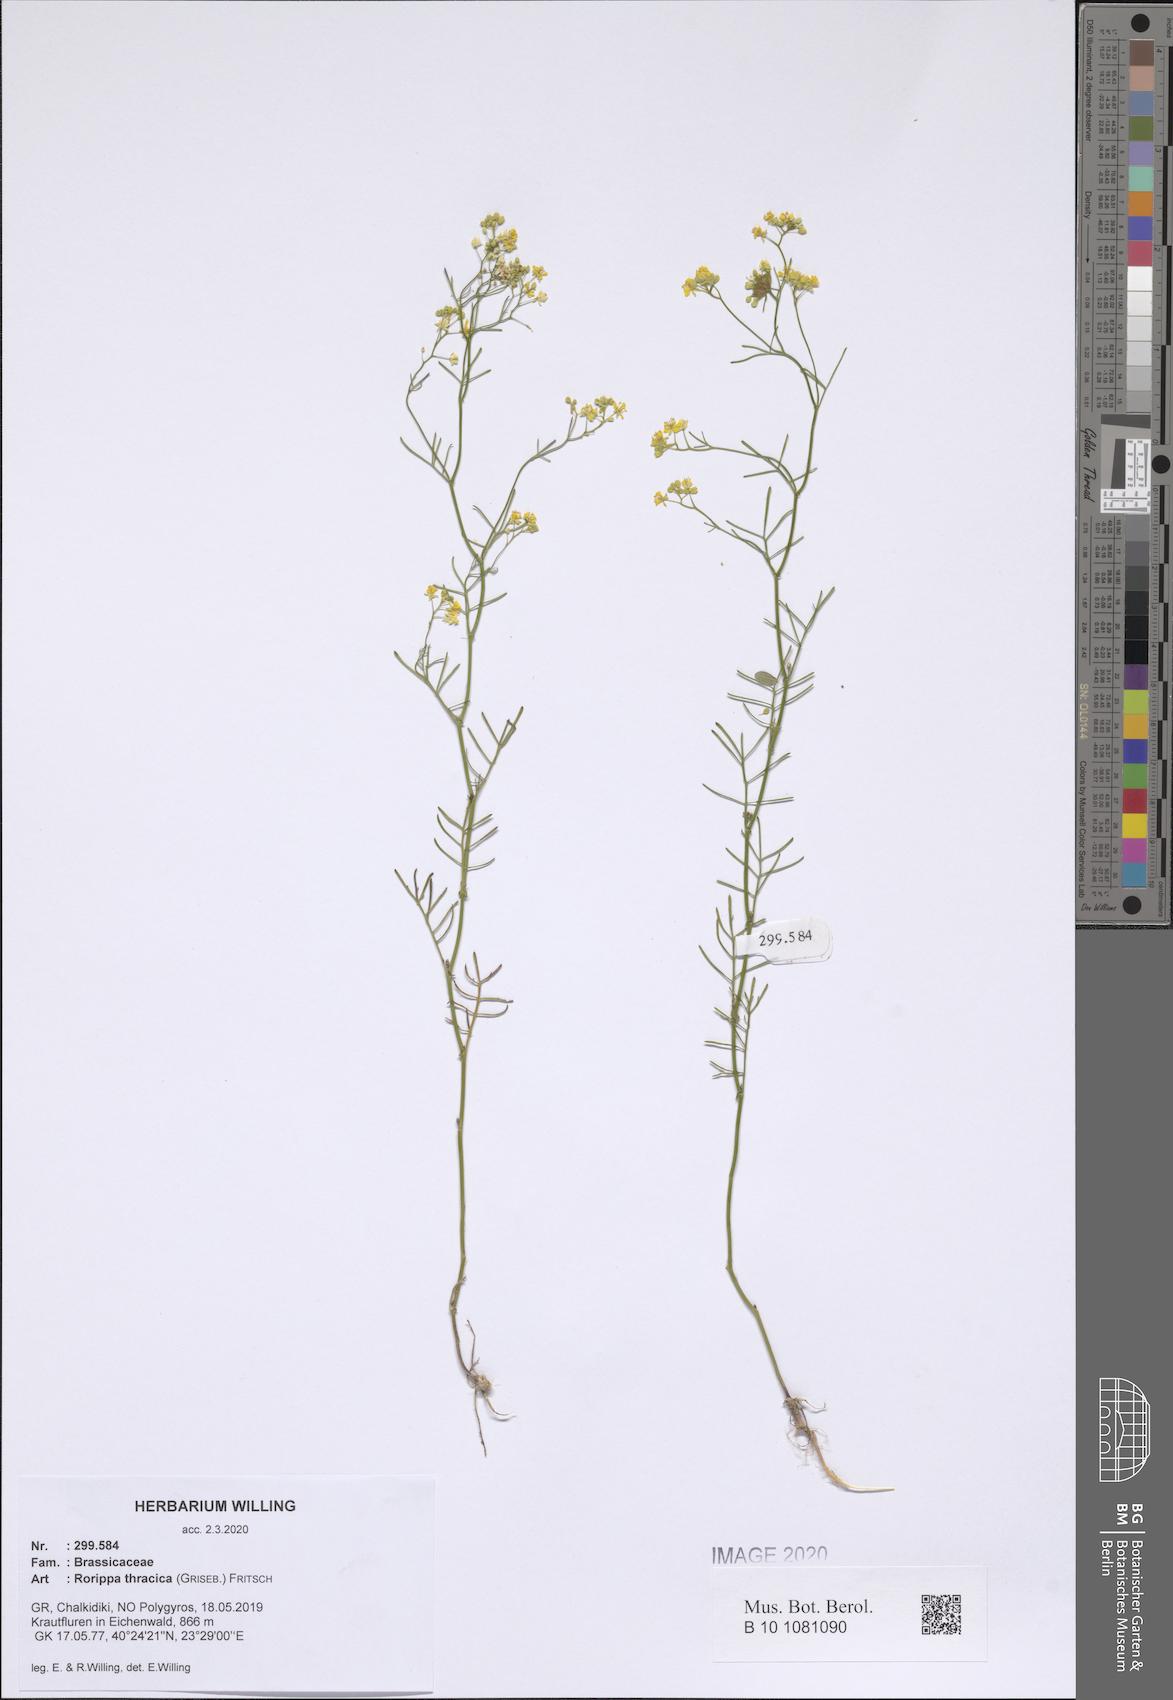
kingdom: Plantae
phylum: Tracheophyta
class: Magnoliopsida
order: Brassicales
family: Brassicaceae
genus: Rorippa
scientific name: Rorippa lippizensis
